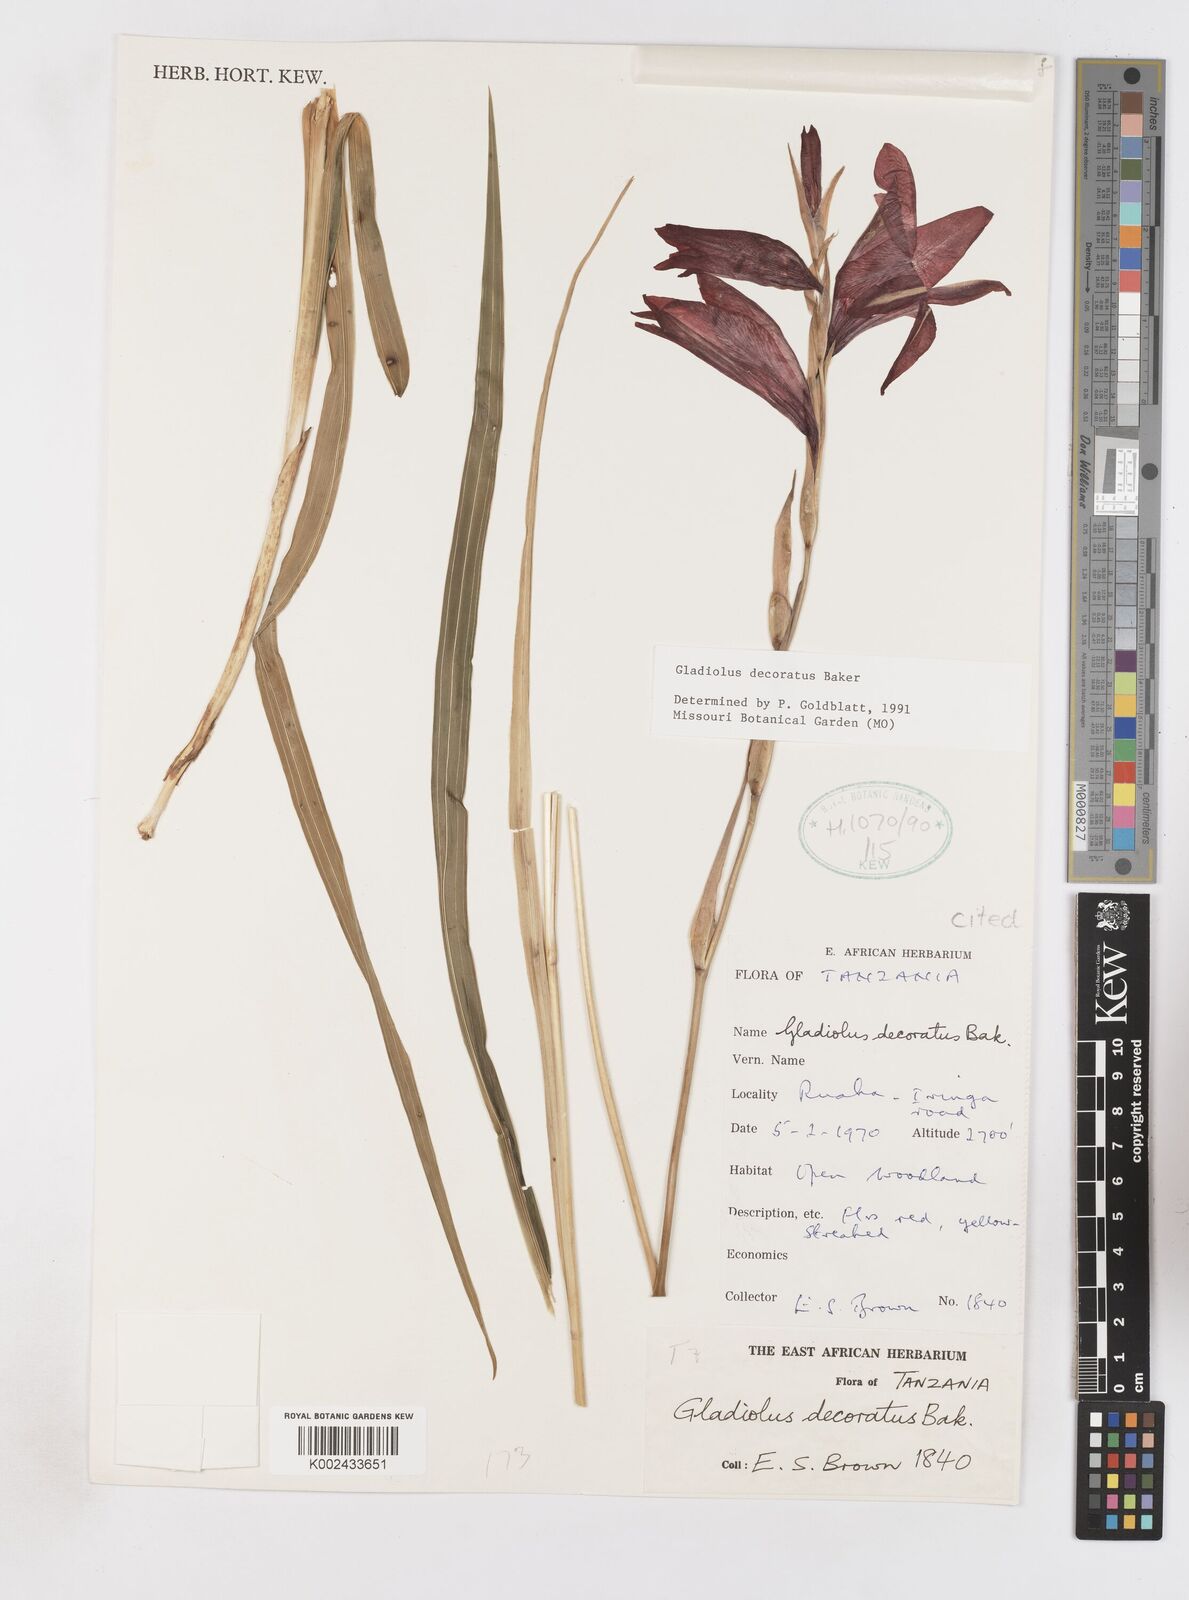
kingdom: Plantae
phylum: Tracheophyta
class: Liliopsida
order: Asparagales
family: Iridaceae
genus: Gladiolus
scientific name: Gladiolus decoratus
